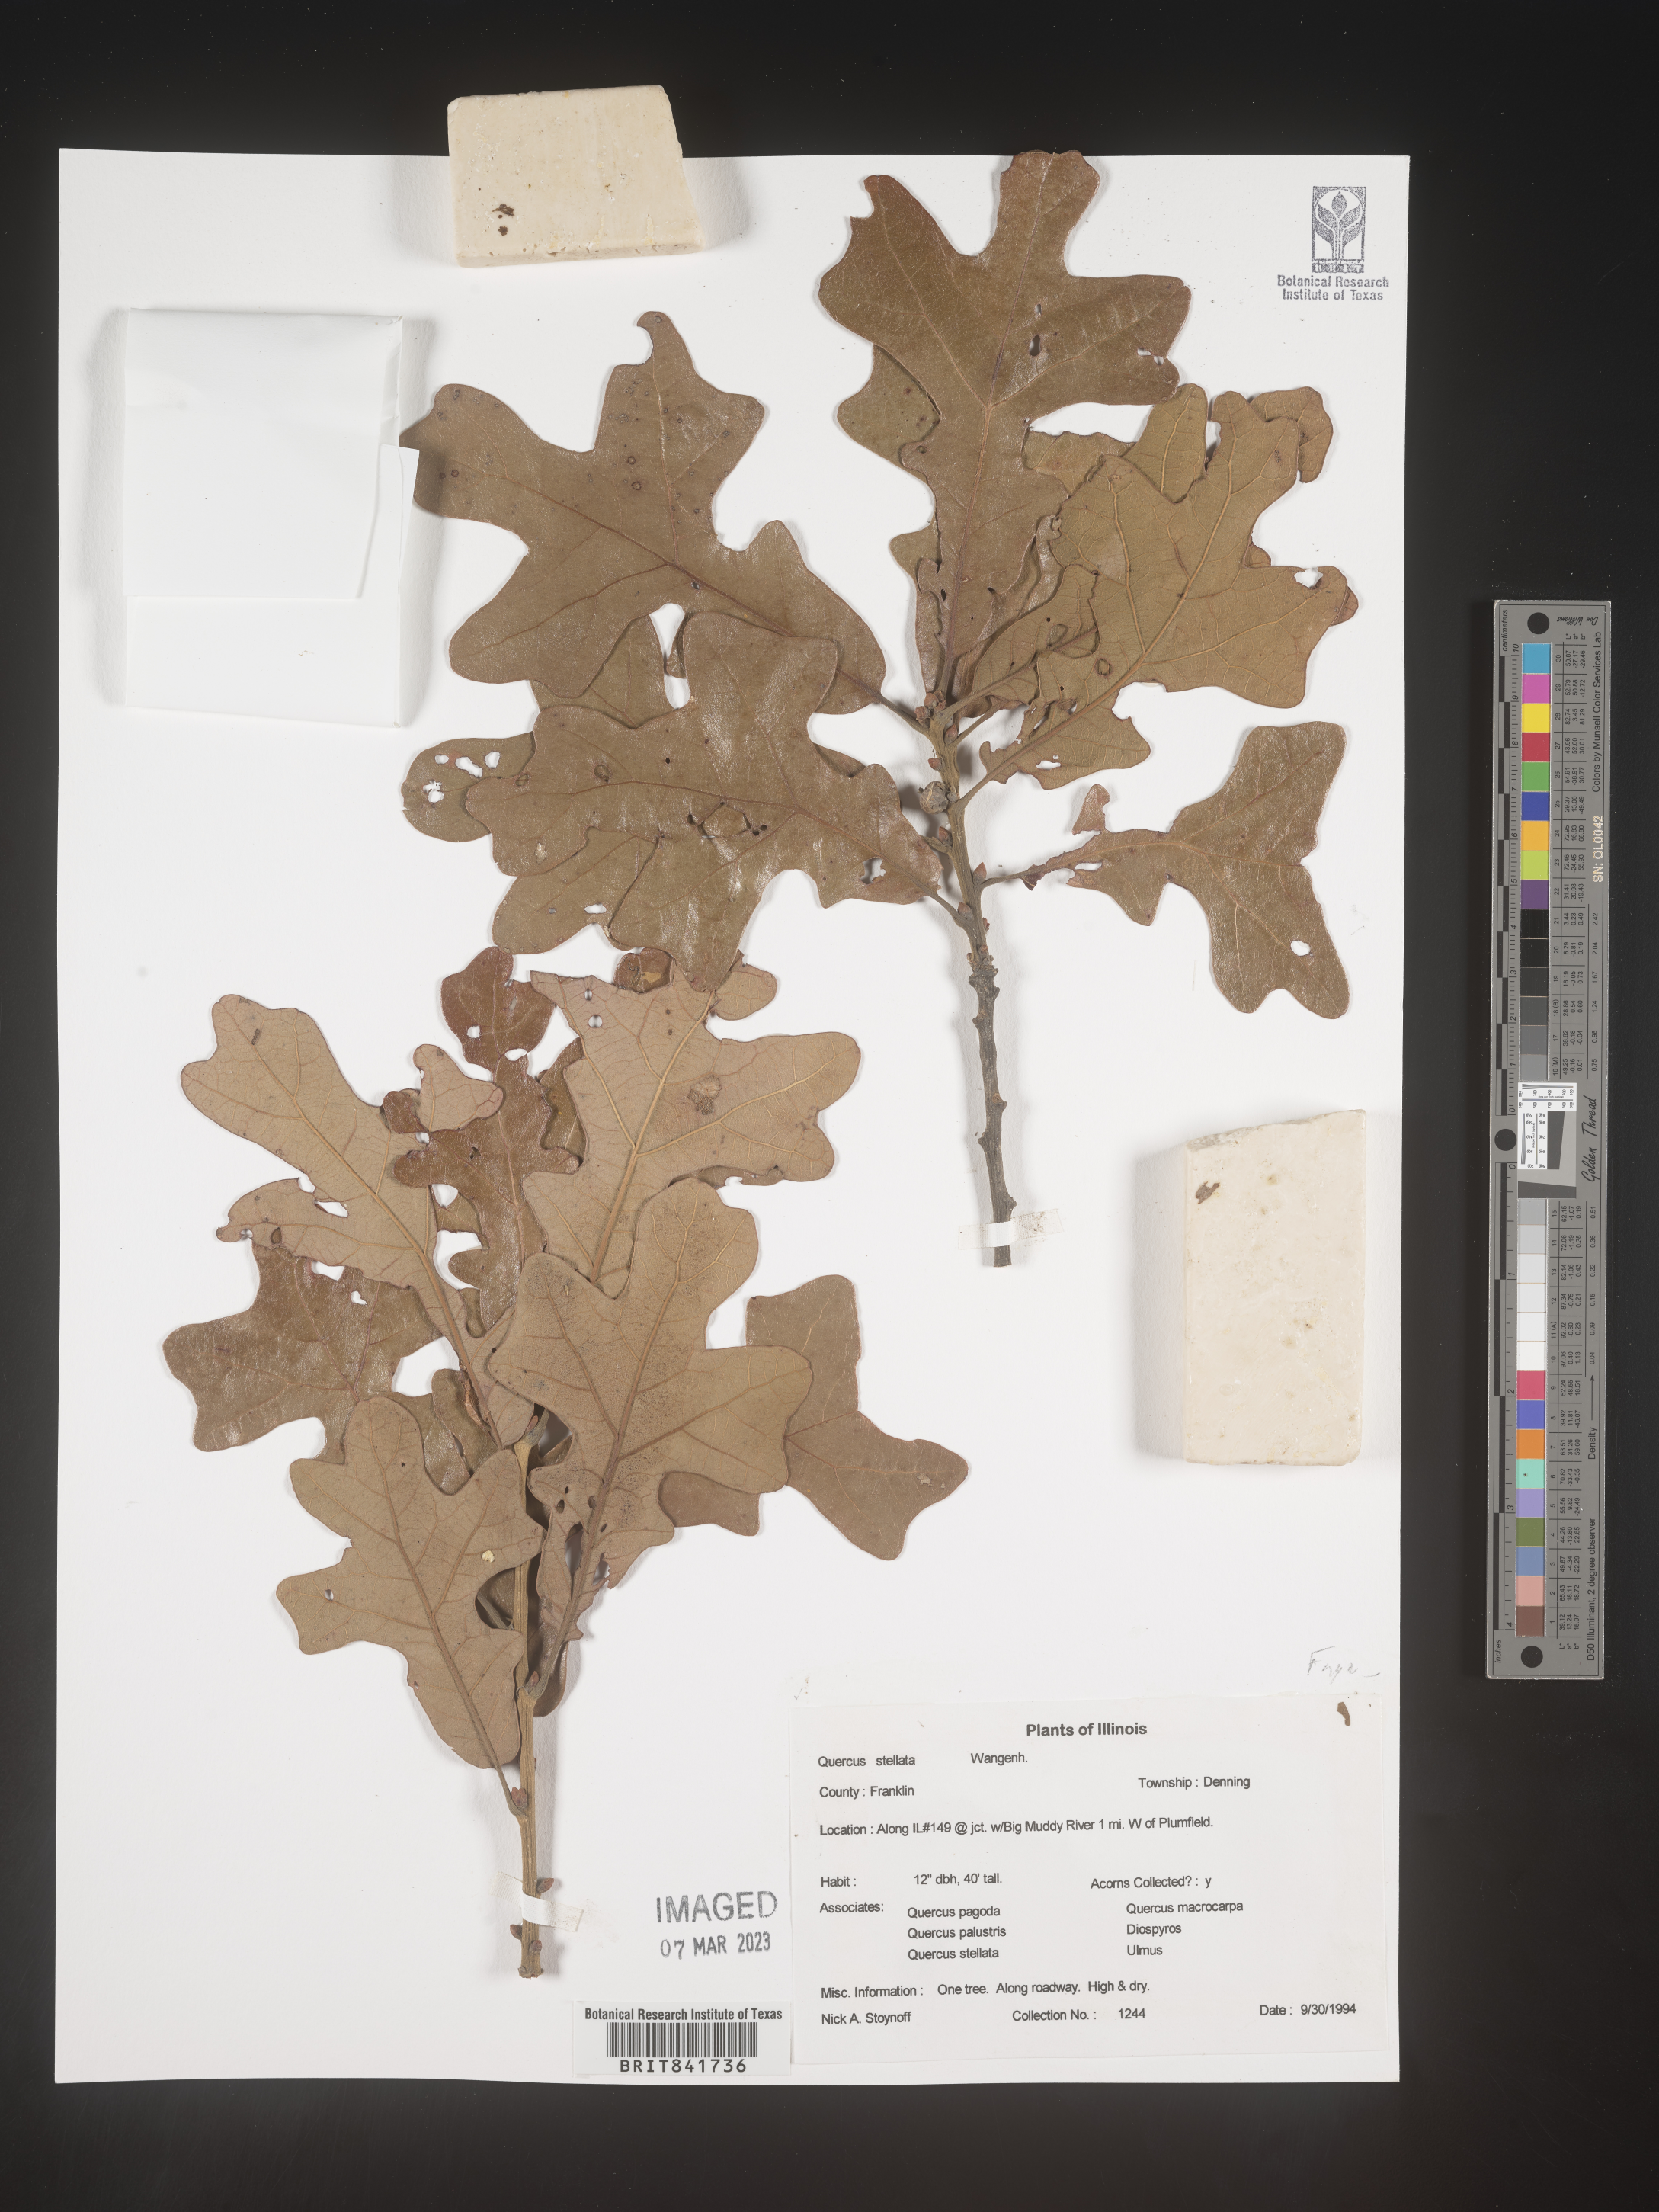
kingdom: Plantae
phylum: Tracheophyta
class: Magnoliopsida
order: Fagales
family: Fagaceae
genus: Quercus
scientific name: Quercus stellata
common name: Post oak
